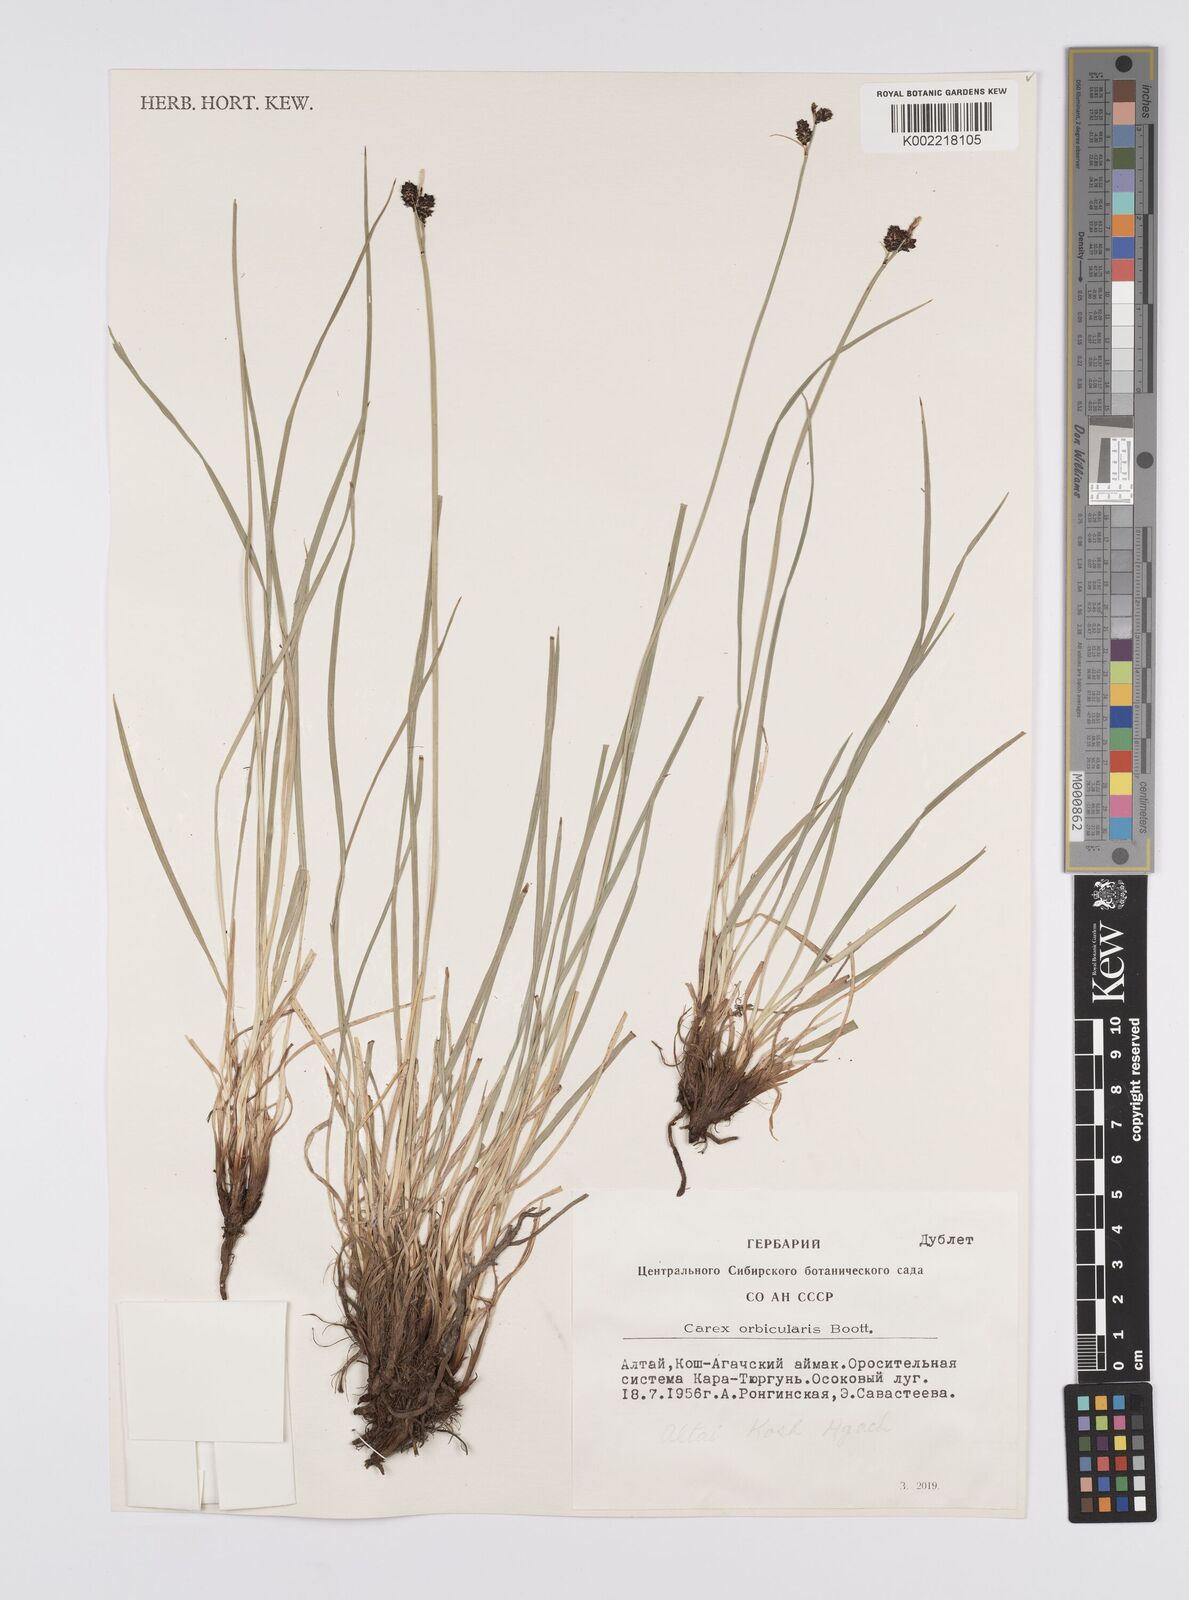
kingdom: Plantae
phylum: Tracheophyta
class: Liliopsida
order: Poales
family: Cyperaceae
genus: Carex
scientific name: Carex orbicularis
